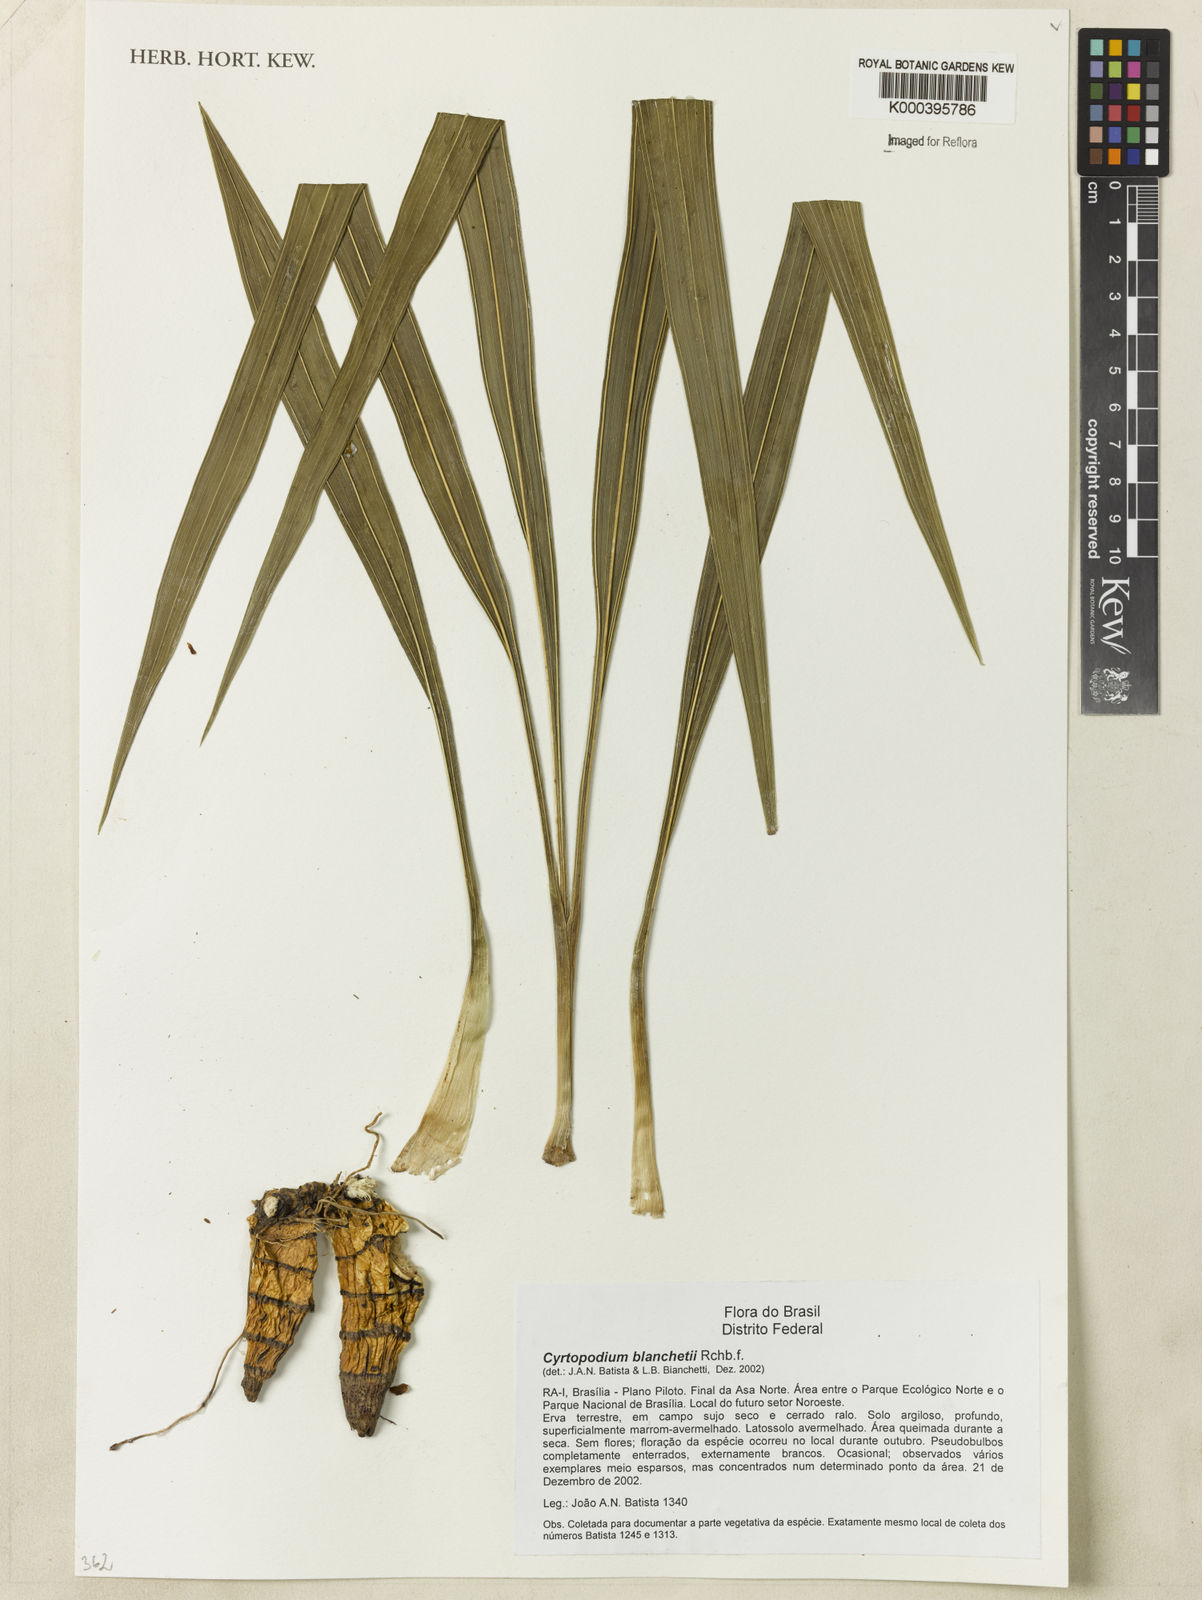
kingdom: Plantae
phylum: Tracheophyta
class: Liliopsida
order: Asparagales
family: Orchidaceae
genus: Cyrtopodium
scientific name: Cyrtopodium blanchetii
